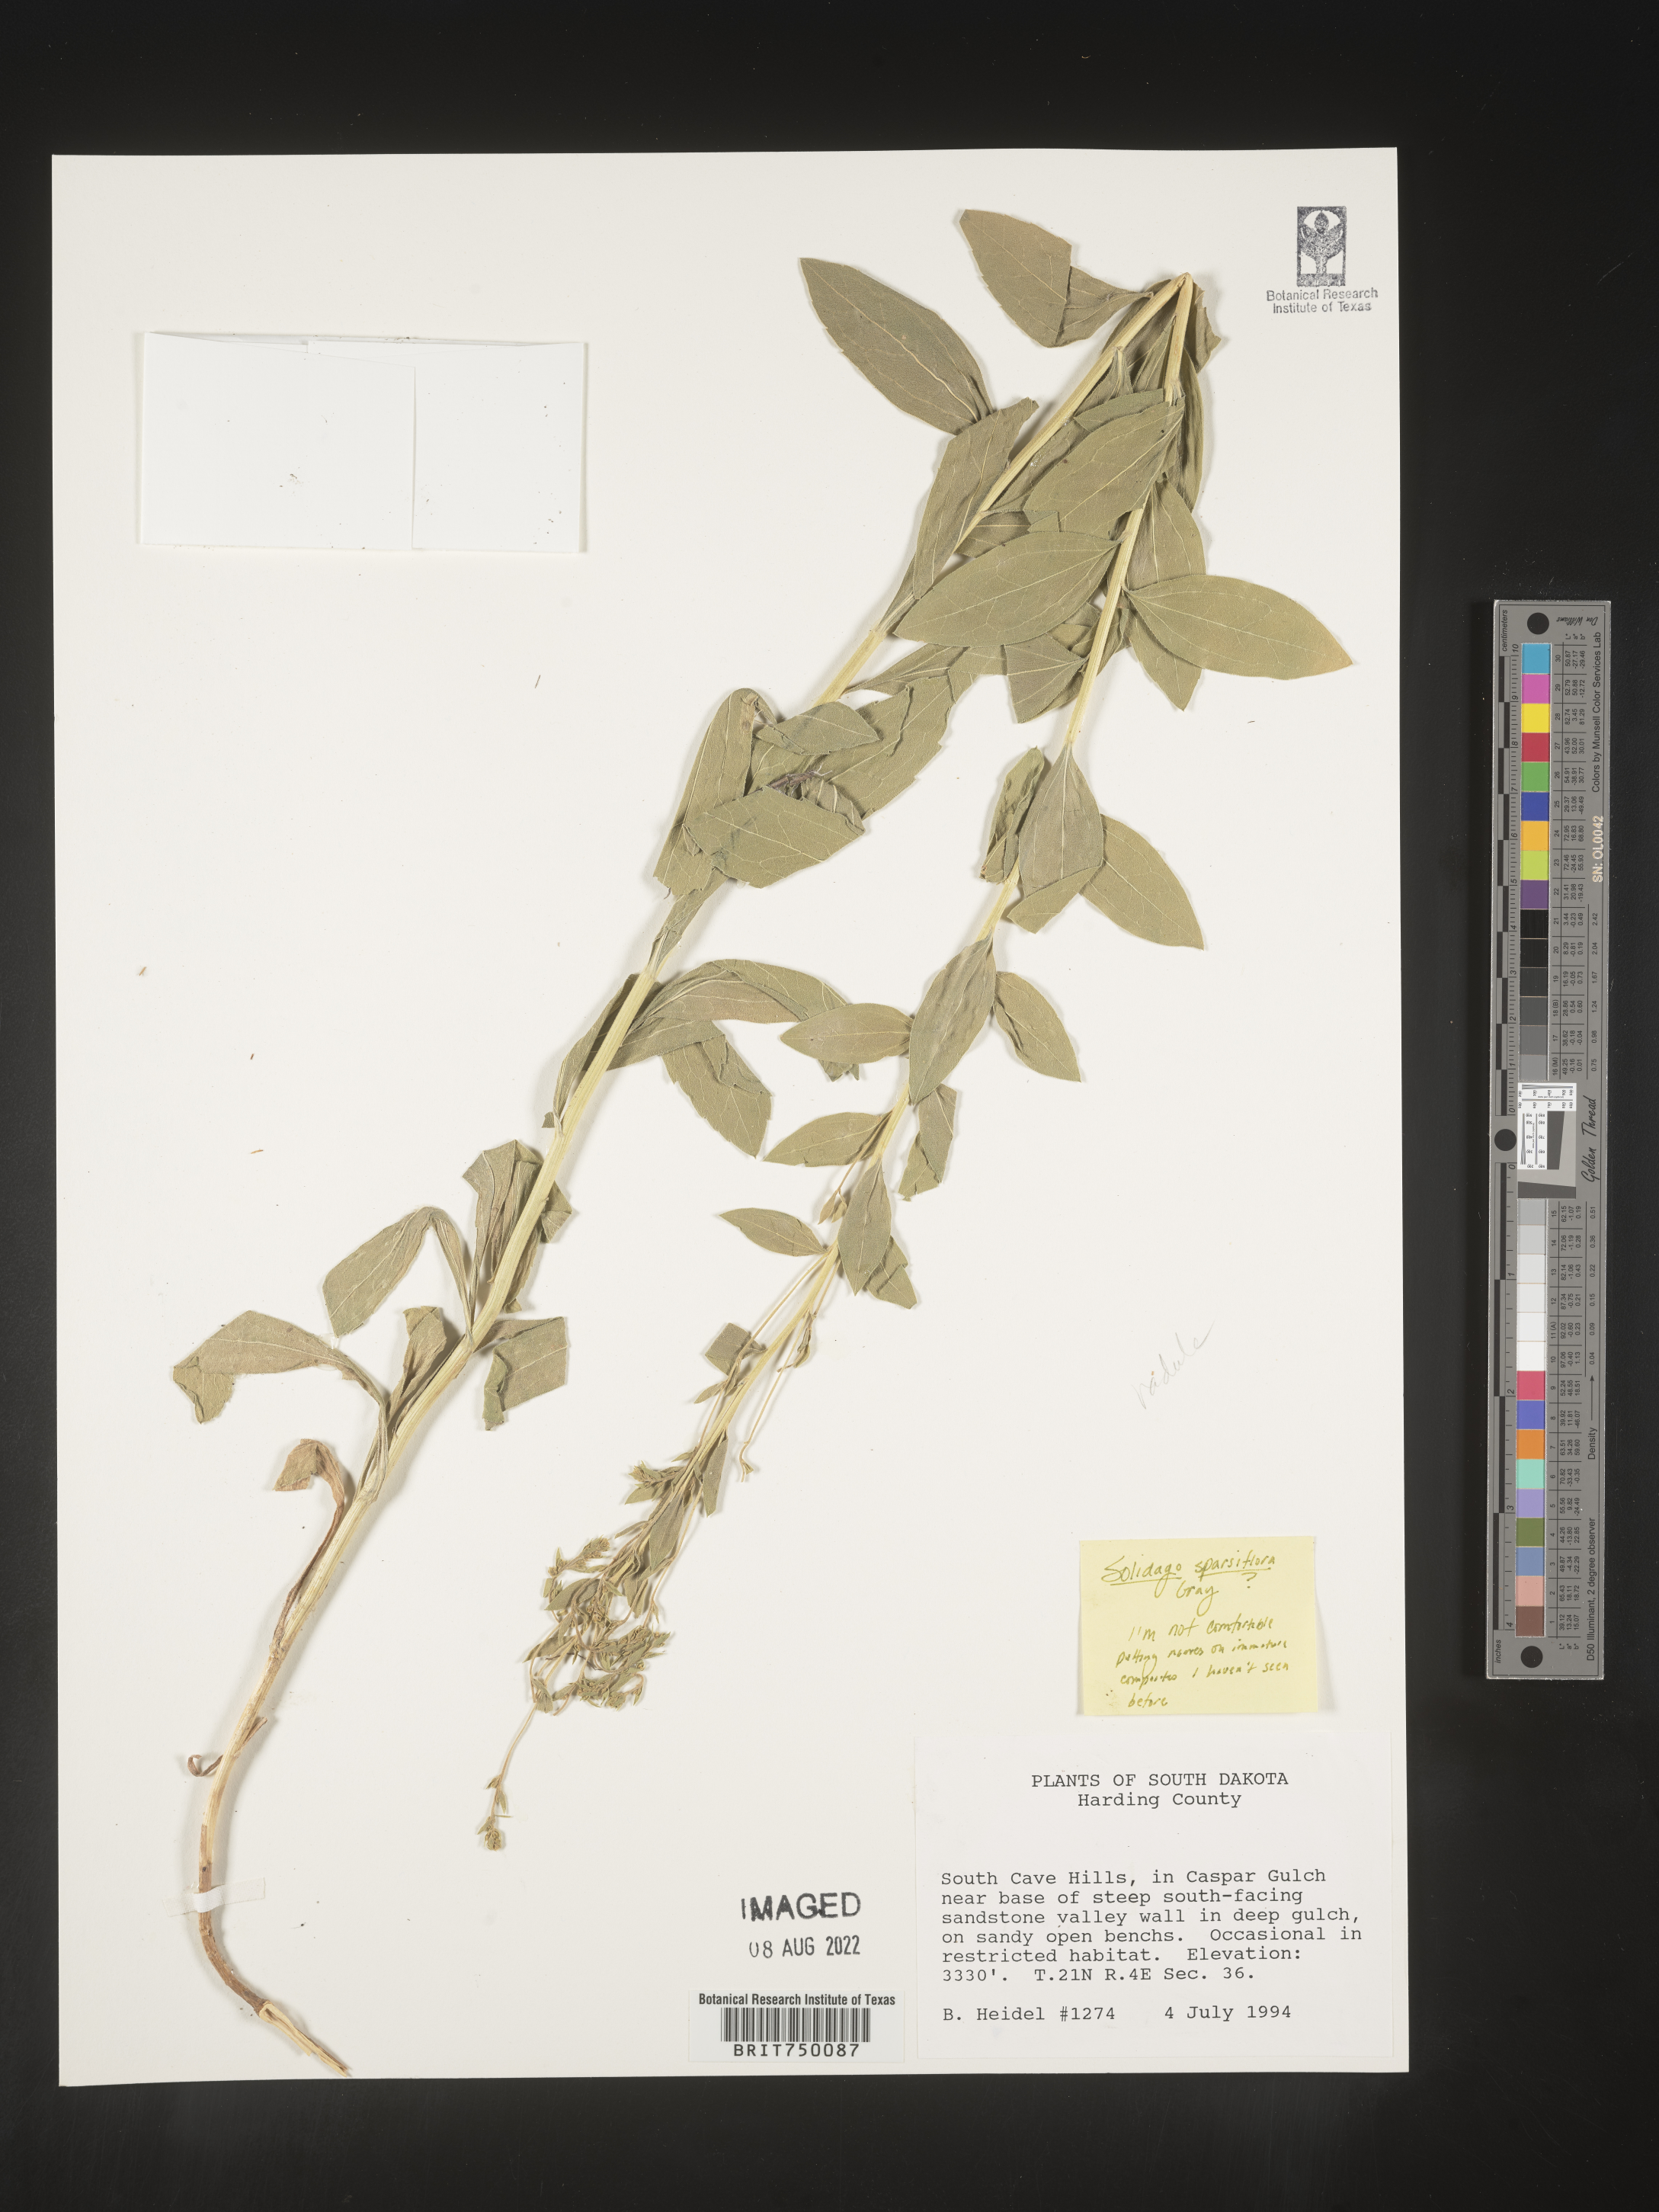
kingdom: Plantae
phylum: Tracheophyta
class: Magnoliopsida
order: Asterales
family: Asteraceae
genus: Solidago
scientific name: Solidago velutina
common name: Three-nerve goldenrod
